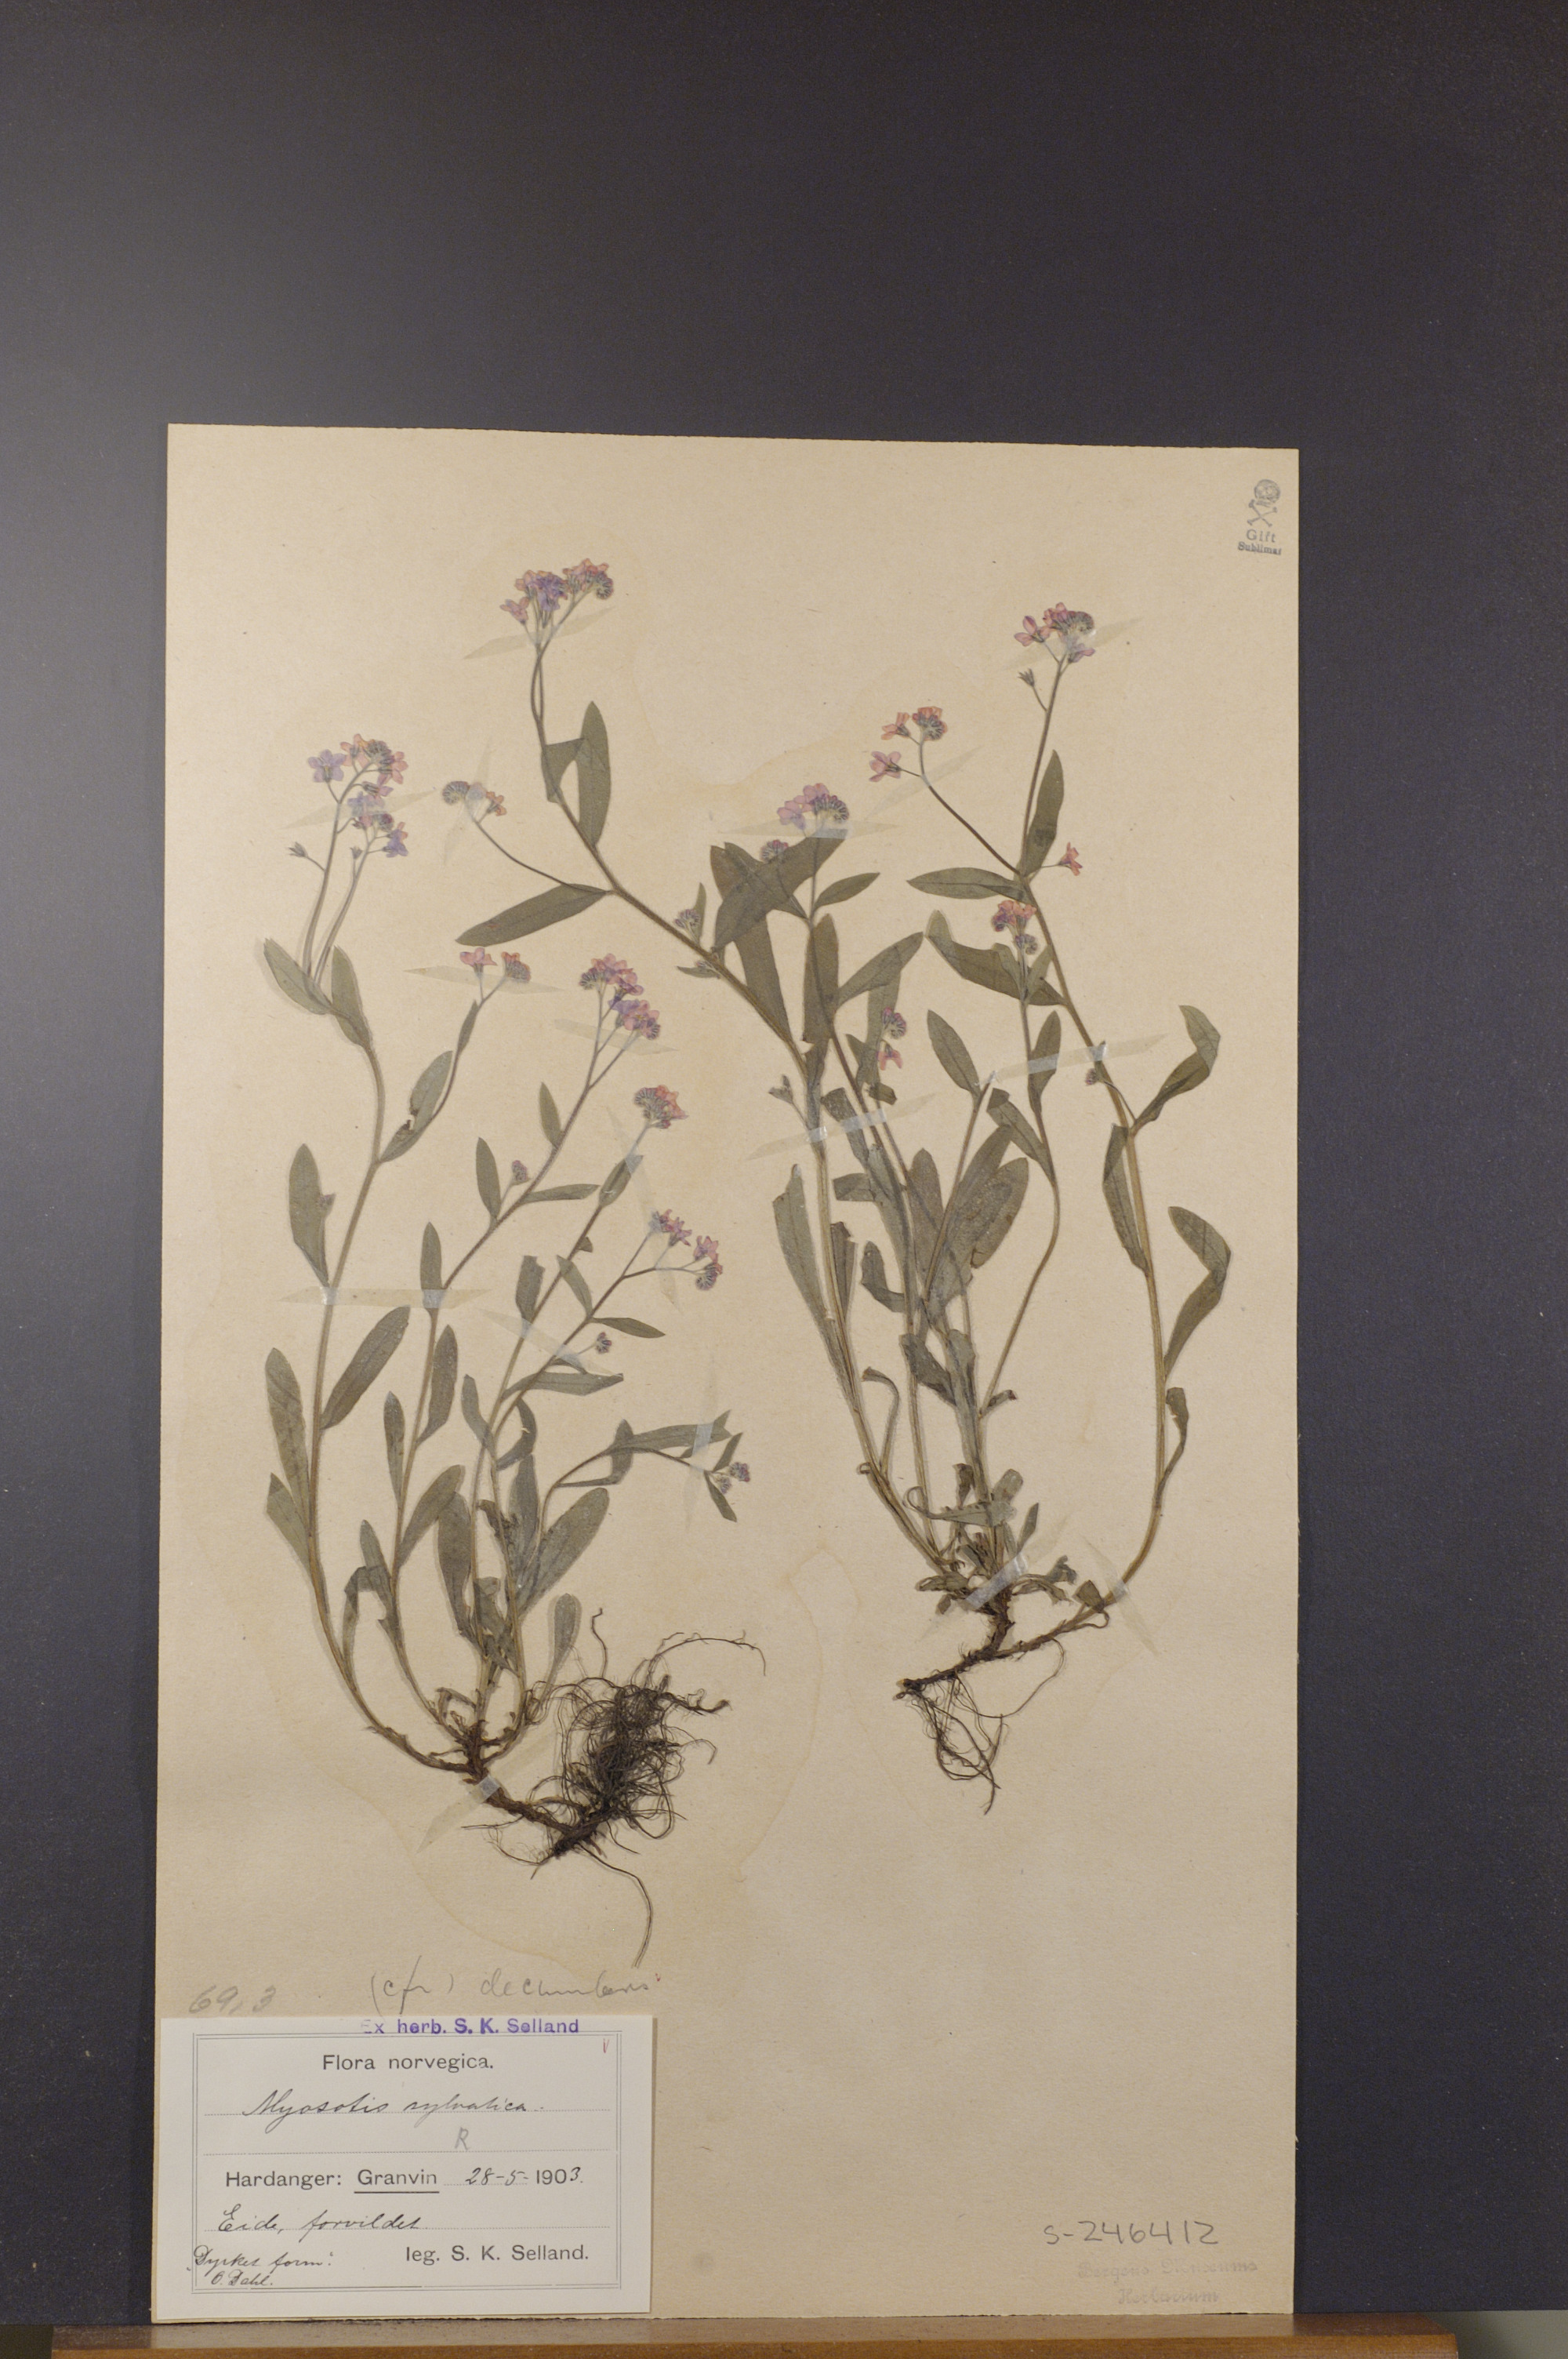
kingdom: Plantae
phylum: Tracheophyta
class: Magnoliopsida
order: Boraginales
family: Boraginaceae
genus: Myosotis
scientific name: Myosotis sylvatica
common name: Wood forget-me-not
